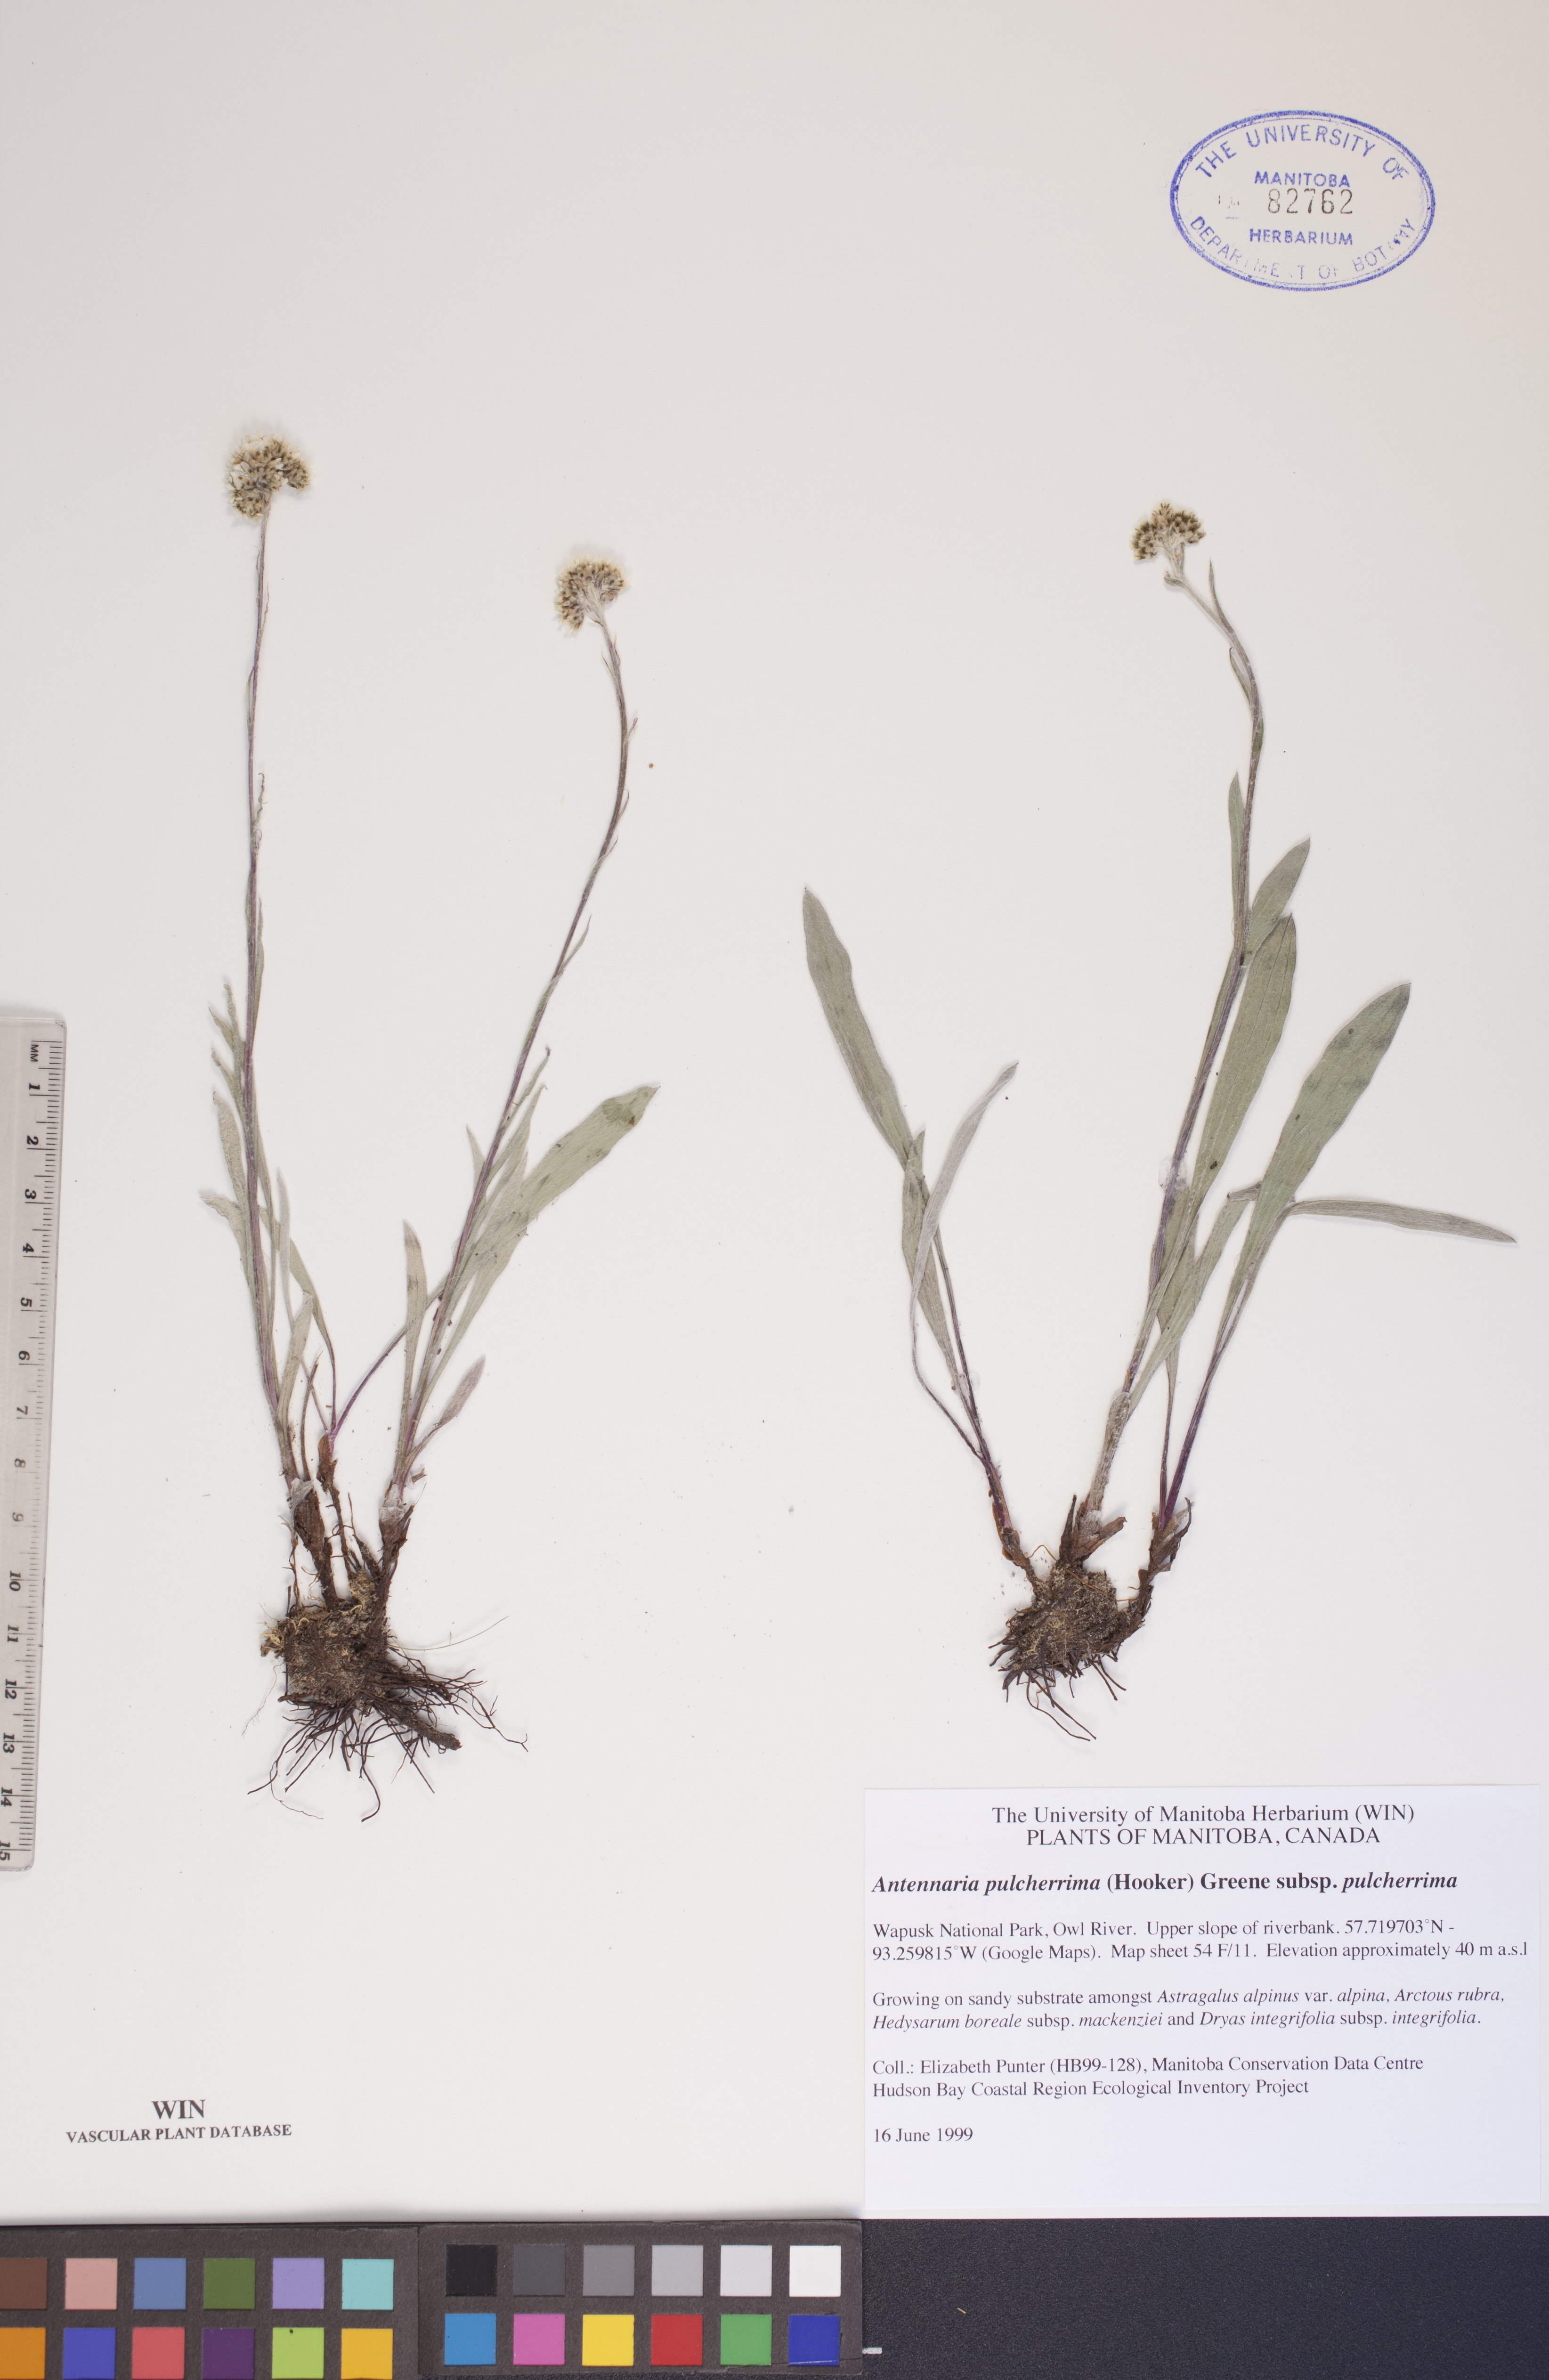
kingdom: Plantae
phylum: Tracheophyta
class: Magnoliopsida
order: Asterales
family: Asteraceae
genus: Antennaria
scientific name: Antennaria pulcherrima
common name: Handsome pussytoes
